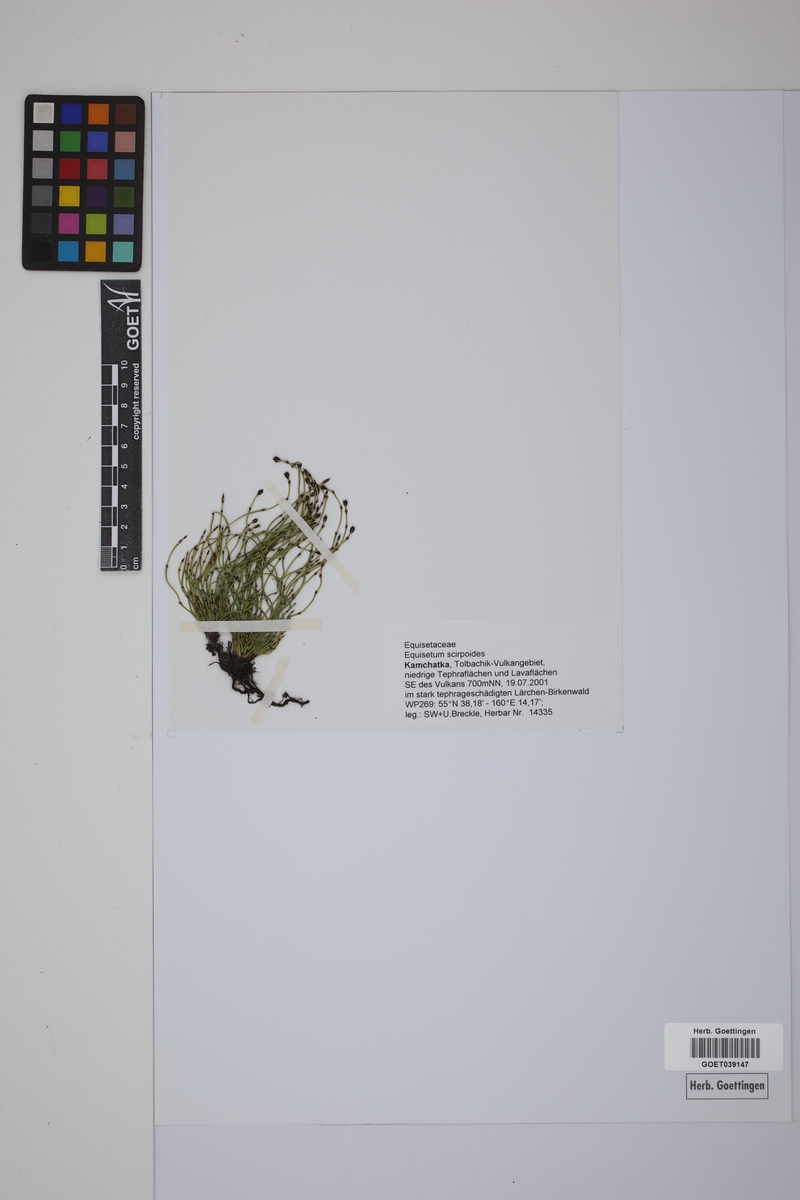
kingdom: Plantae
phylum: Tracheophyta
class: Polypodiopsida
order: Equisetales
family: Equisetaceae
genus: Equisetum
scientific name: Equisetum scirpoides
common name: Delicate horsetail
